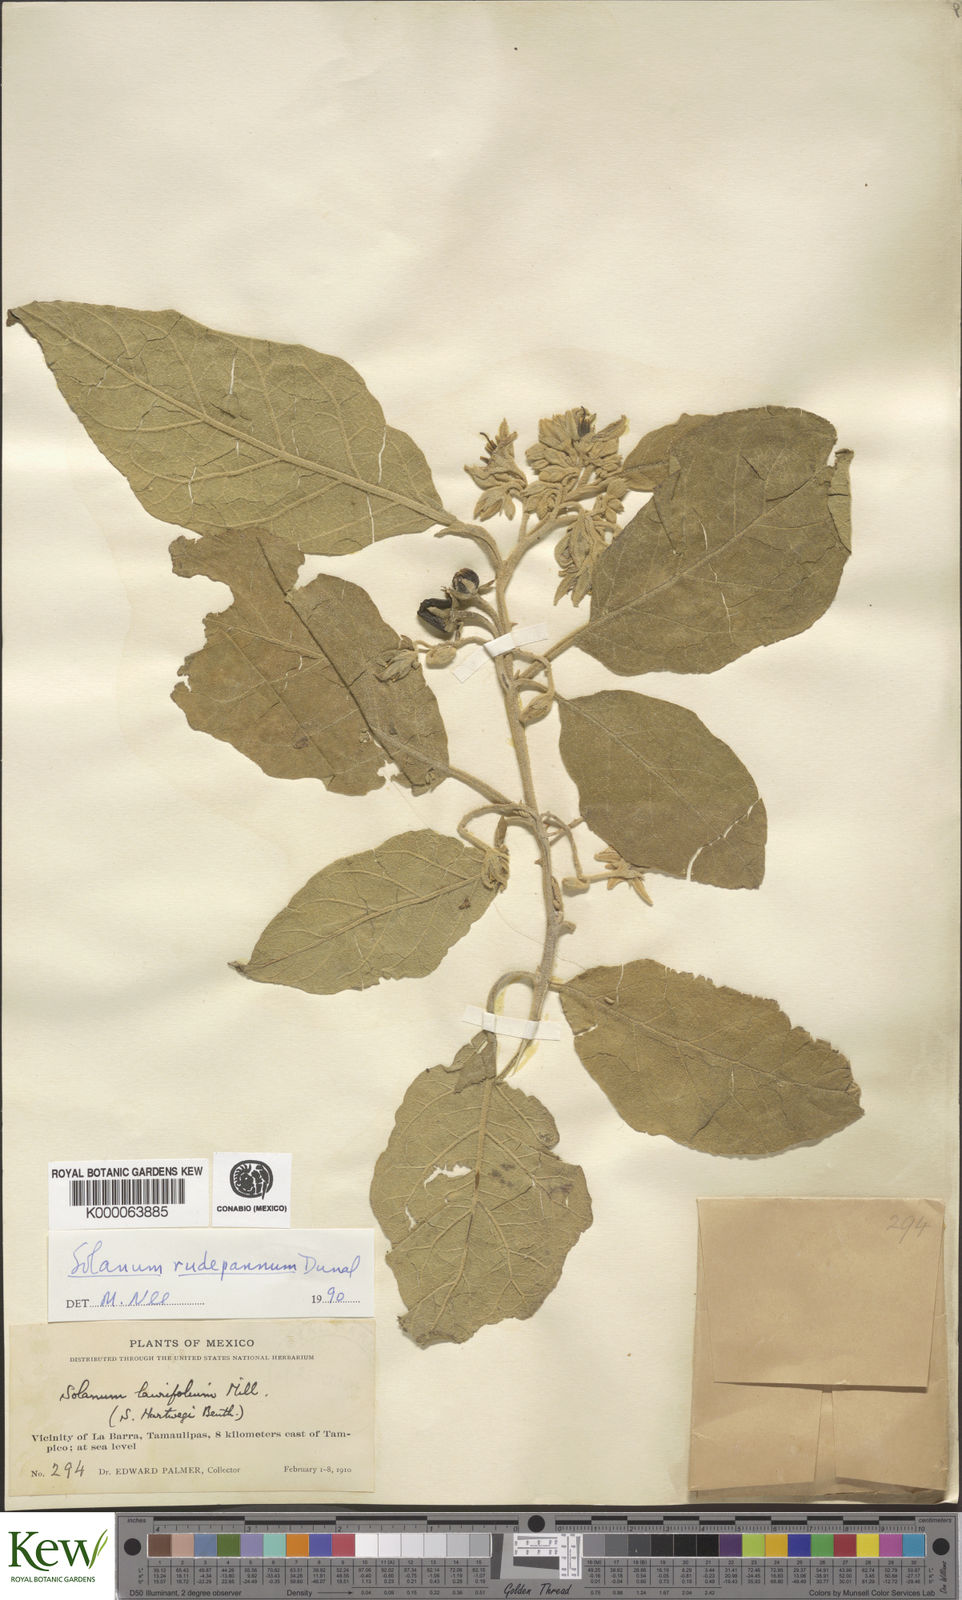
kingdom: Plantae
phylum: Tracheophyta
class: Magnoliopsida
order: Solanales
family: Solanaceae
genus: Solanum
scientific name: Solanum rude-pannum
